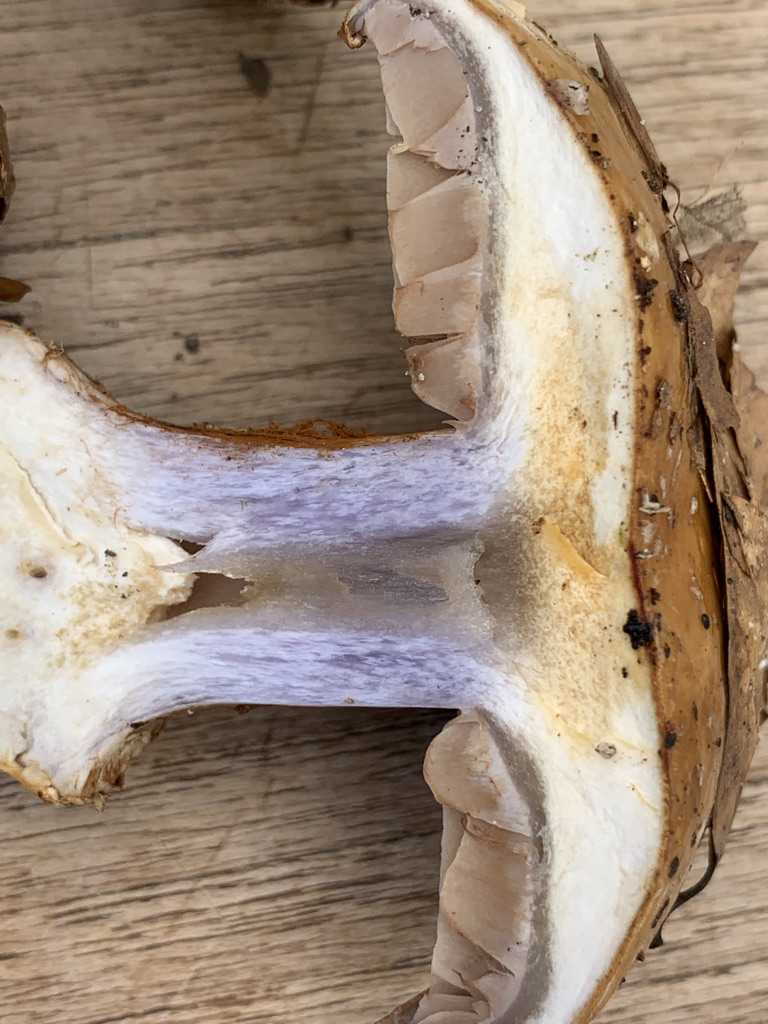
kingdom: Fungi
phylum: Basidiomycota
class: Agaricomycetes
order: Agaricales
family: Cortinariaceae
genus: Cortinarius
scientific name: Cortinarius foetens
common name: stribet slørhat
